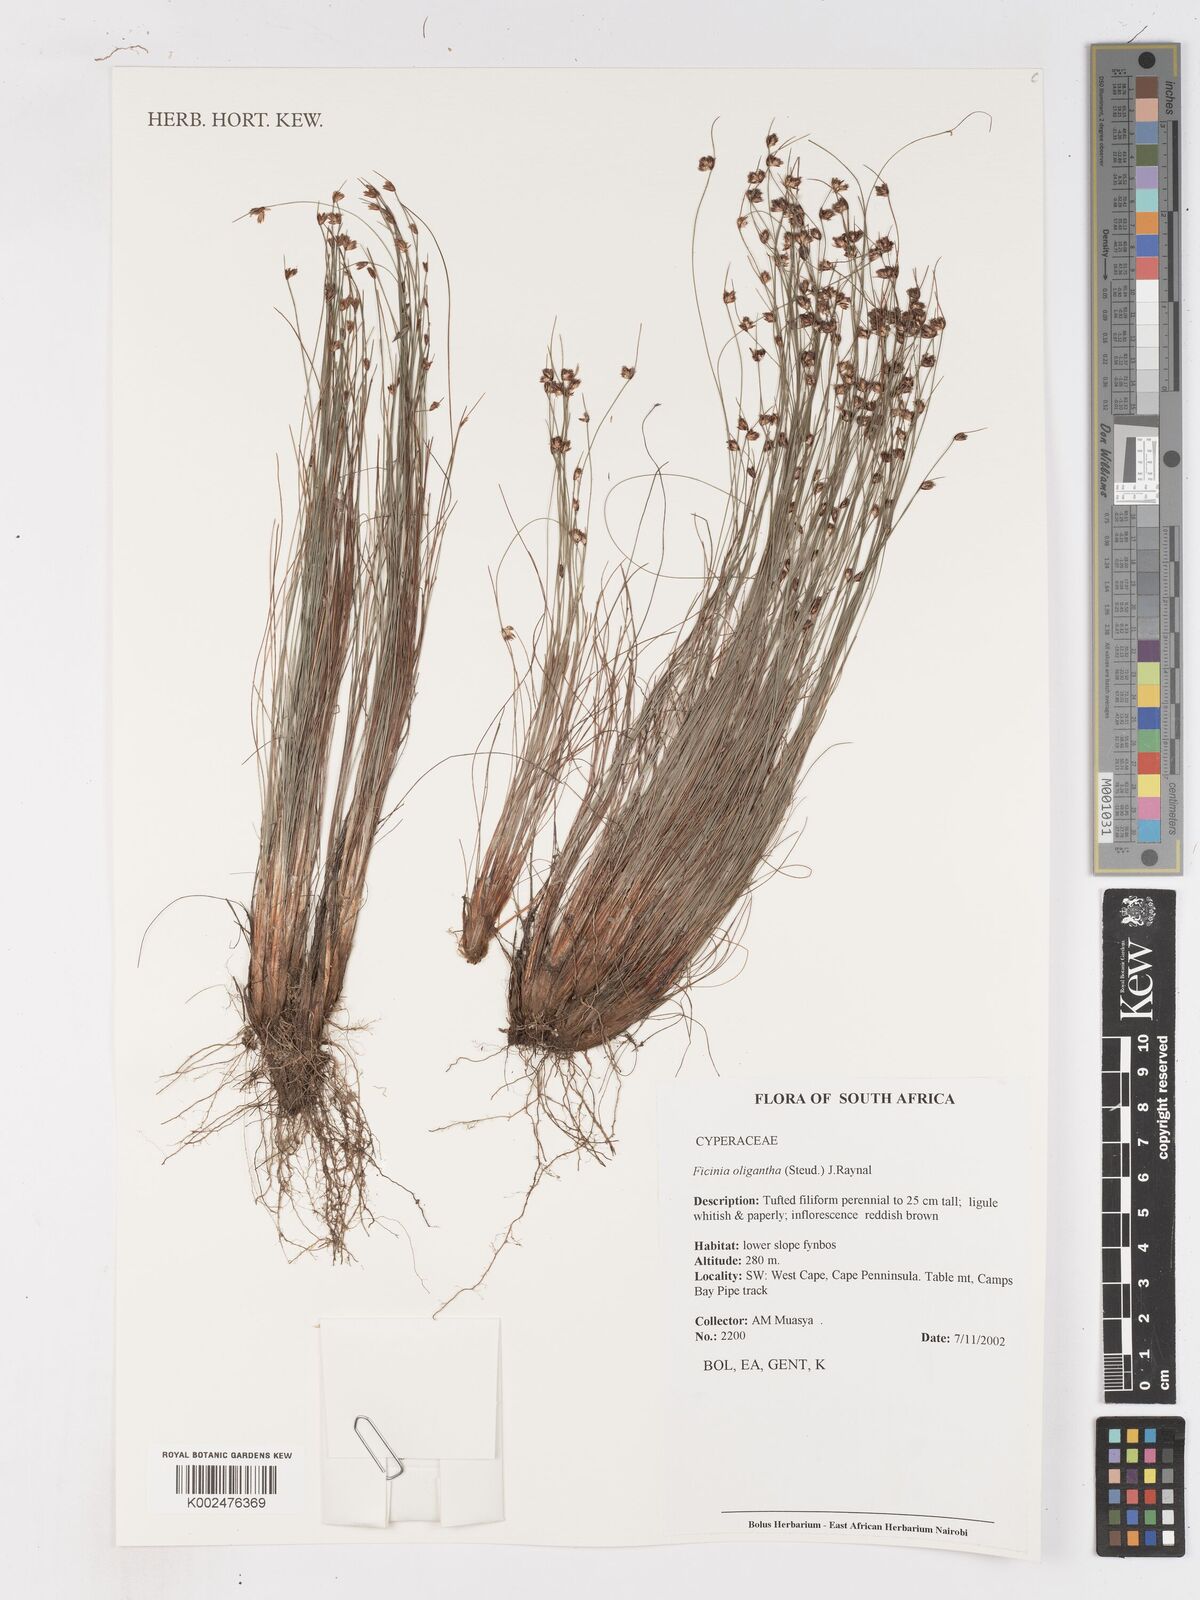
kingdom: Plantae
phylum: Tracheophyta
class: Liliopsida
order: Poales
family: Cyperaceae
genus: Ficinia
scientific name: Ficinia oligantha
